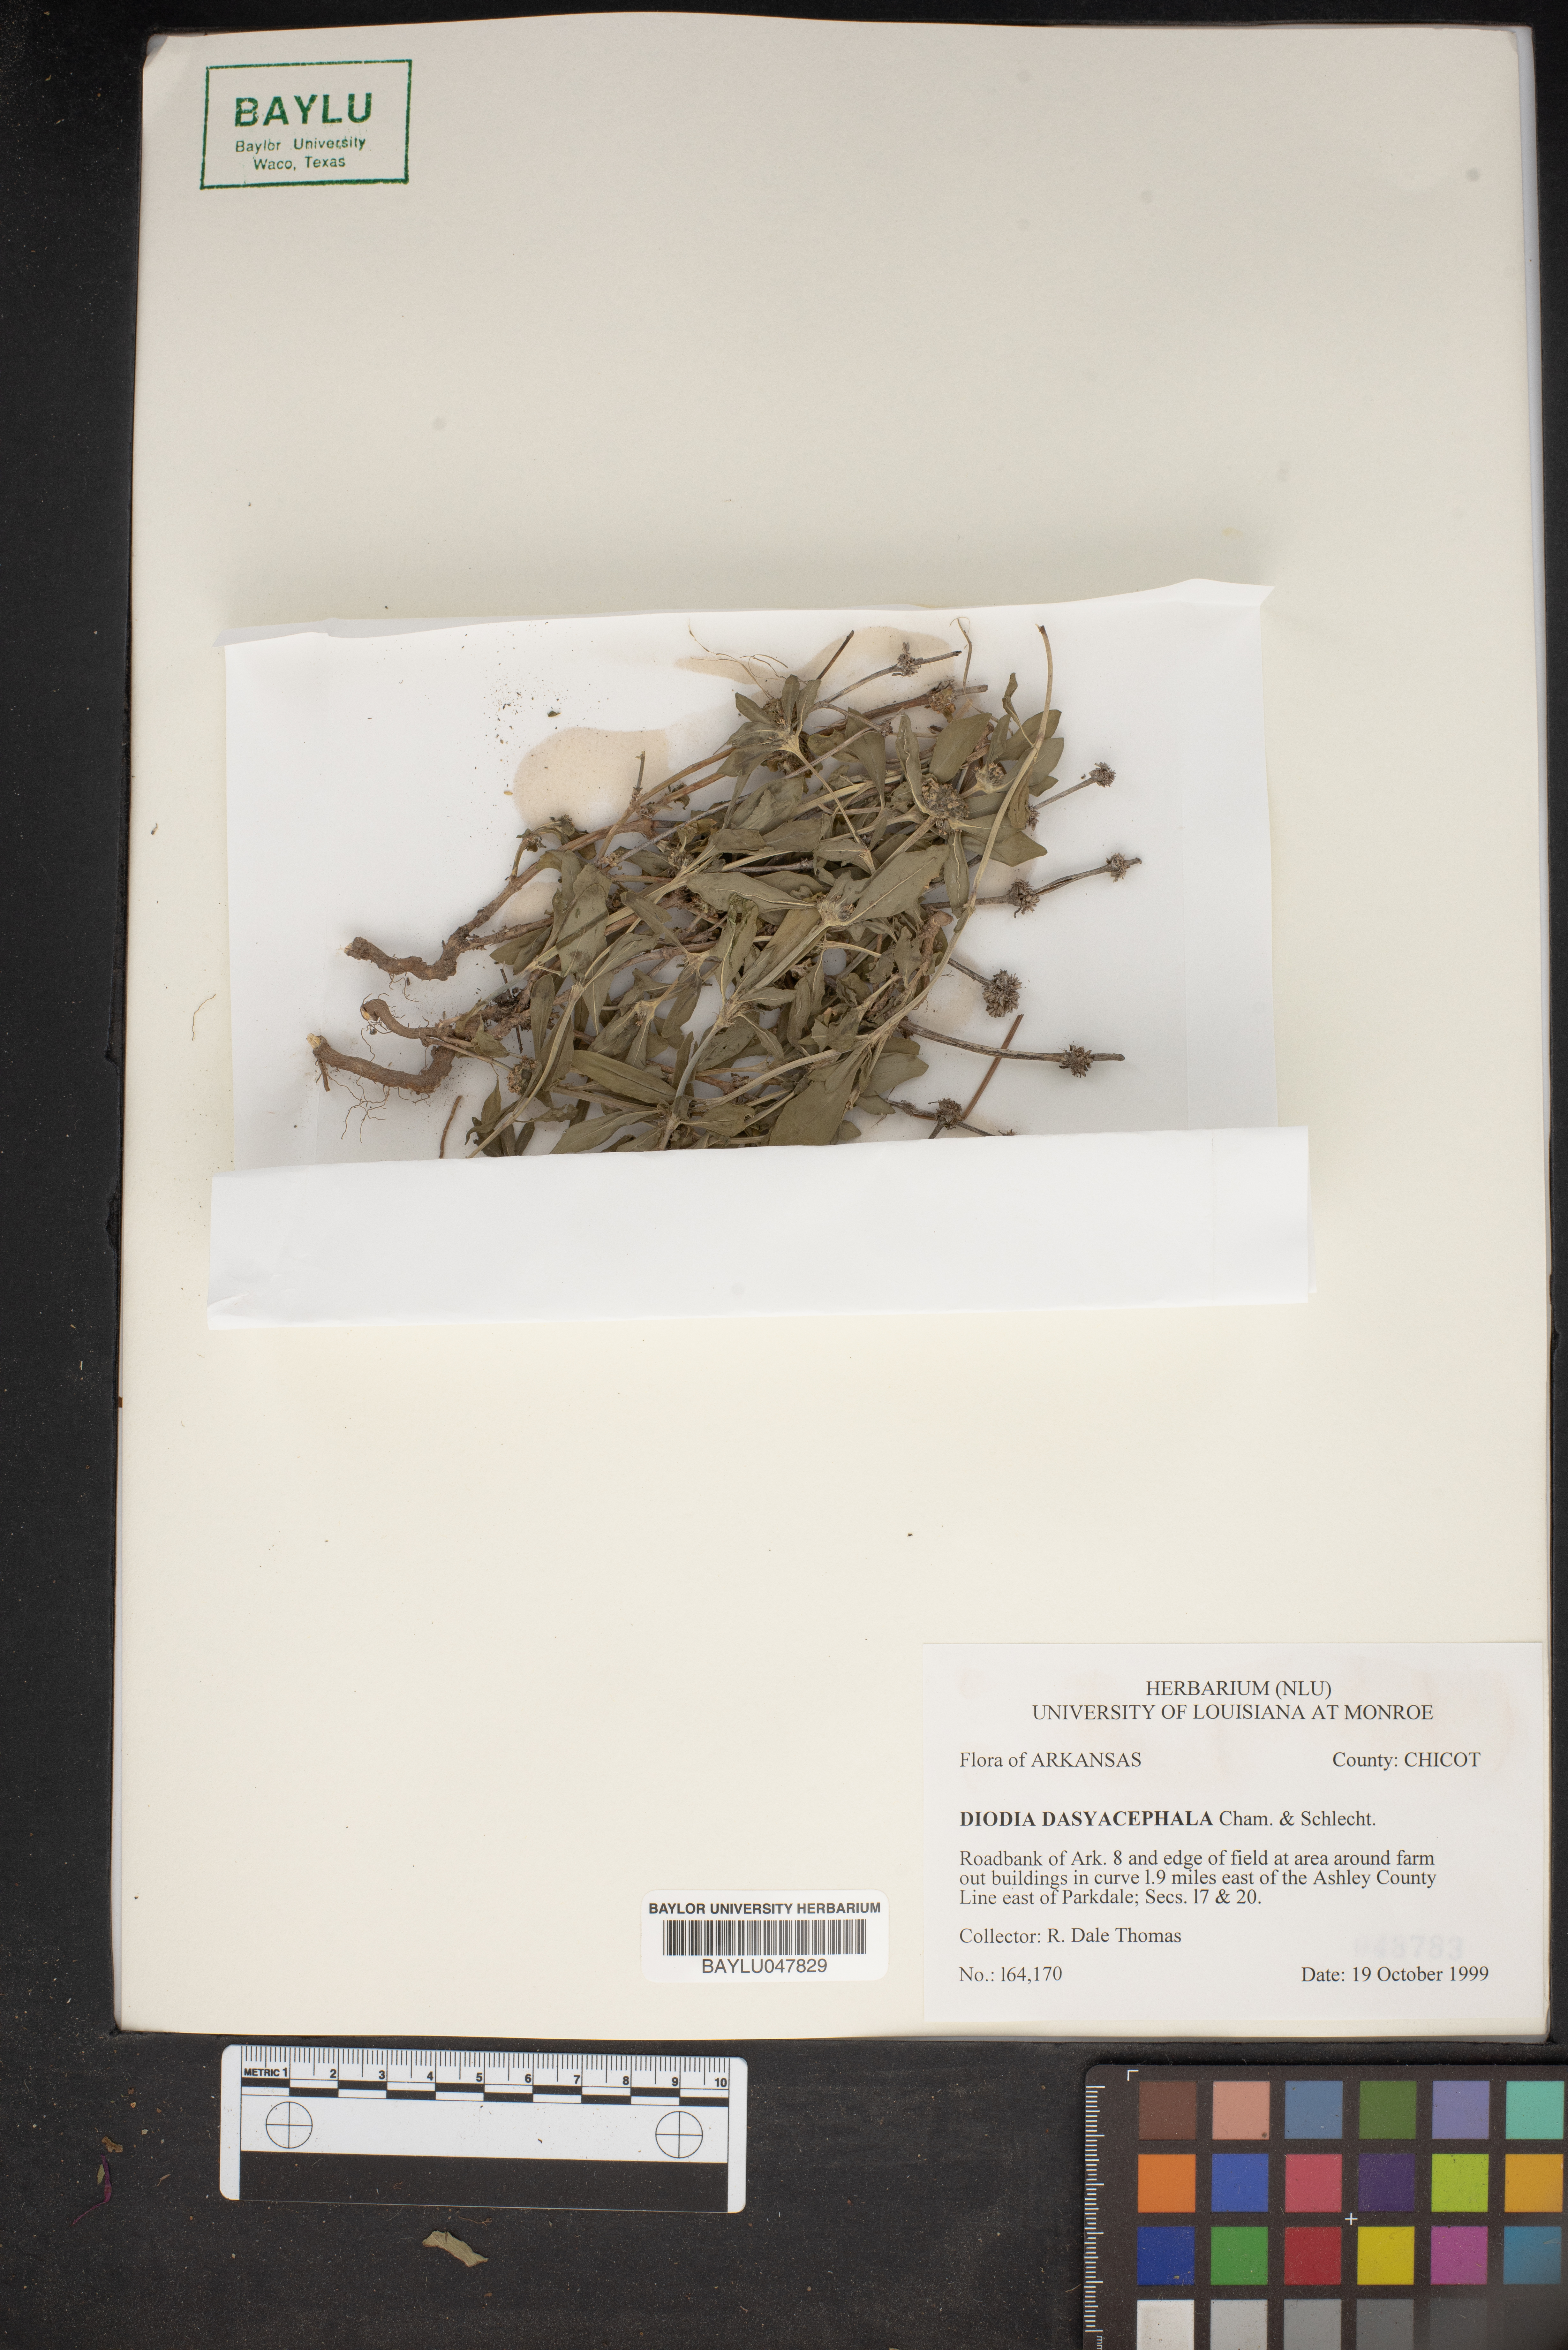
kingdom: Plantae
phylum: Tracheophyta
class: Magnoliopsida
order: Gentianales
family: Rubiaceae
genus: Spermacoce
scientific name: Spermacoce dasycephala
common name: False buttonweed
